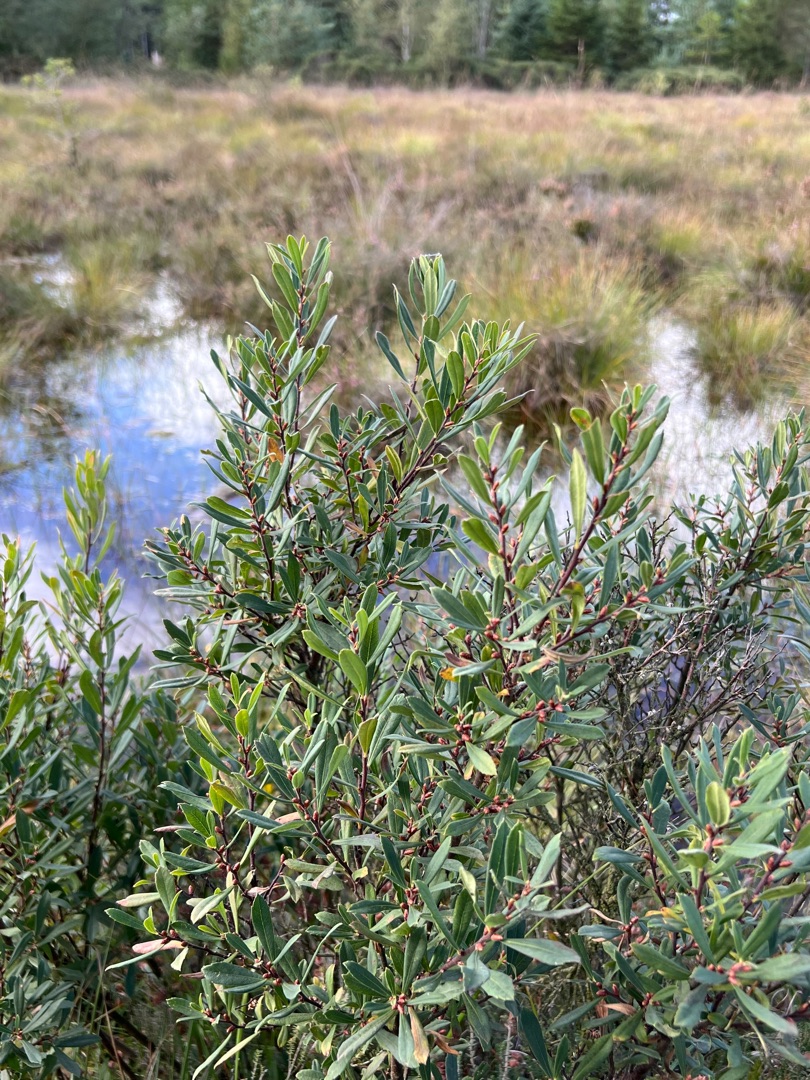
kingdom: Plantae
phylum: Tracheophyta
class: Magnoliopsida
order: Fagales
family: Myricaceae
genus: Myrica
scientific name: Myrica gale
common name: Pors
